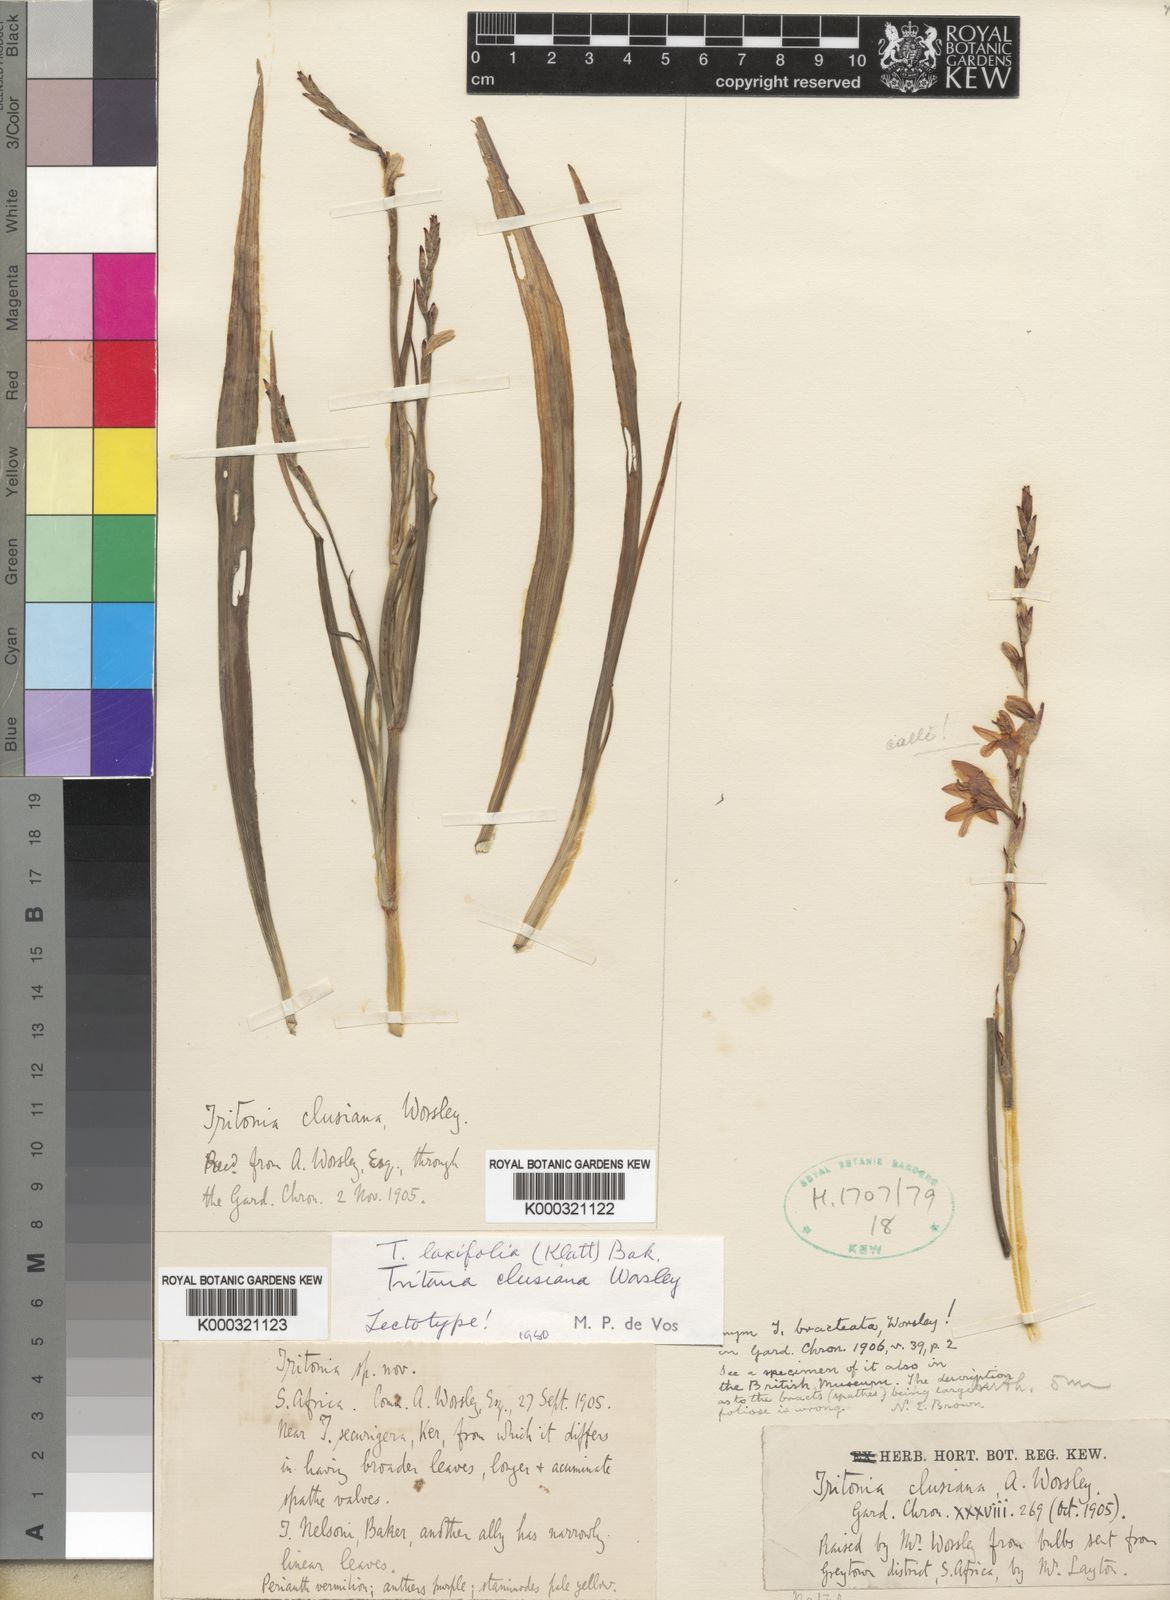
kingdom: Plantae
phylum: Tracheophyta
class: Liliopsida
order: Asparagales
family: Iridaceae
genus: Tritonia
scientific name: Tritonia
